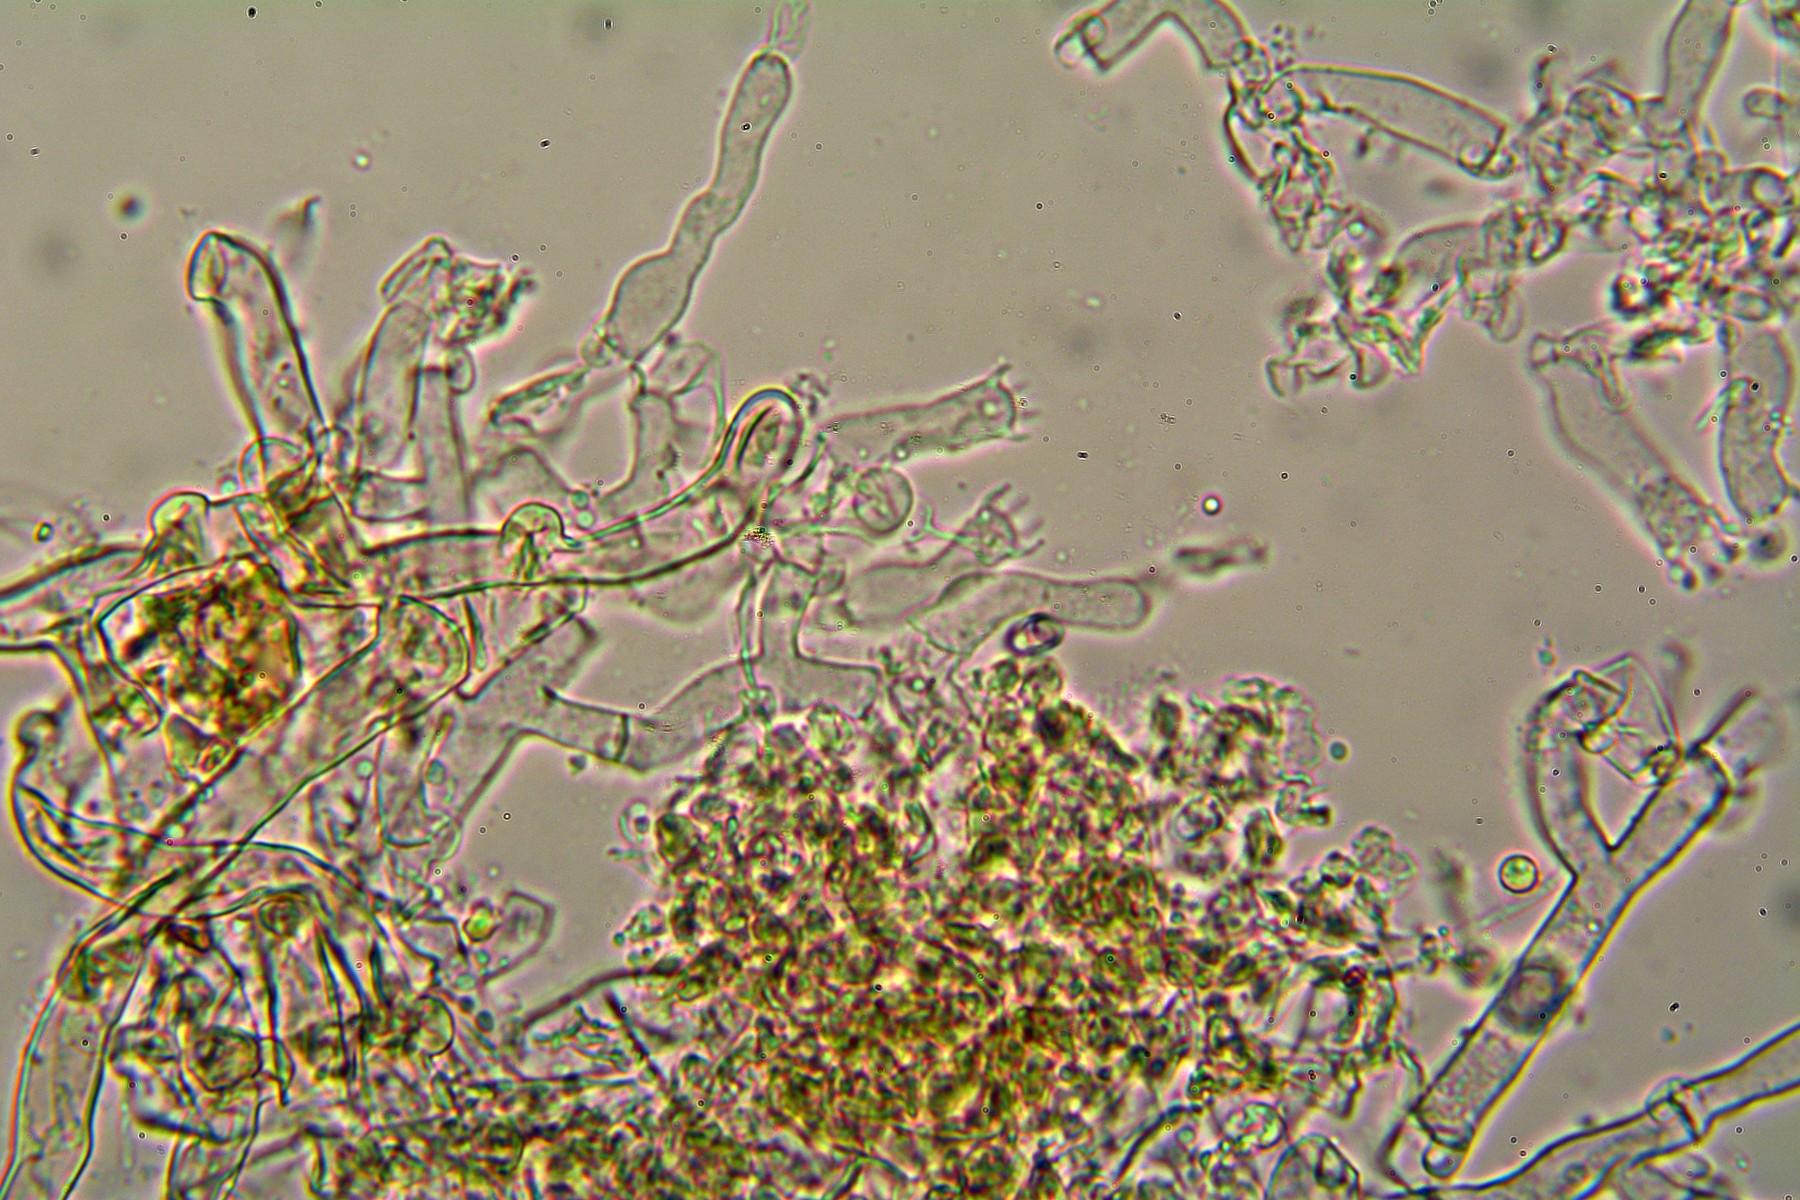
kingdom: Fungi
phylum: Basidiomycota
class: Agaricomycetes
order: Cantharellales
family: Botryobasidiaceae
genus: Botryobasidium
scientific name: Botryobasidium subcoronatum
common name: almindelig spindhinde
